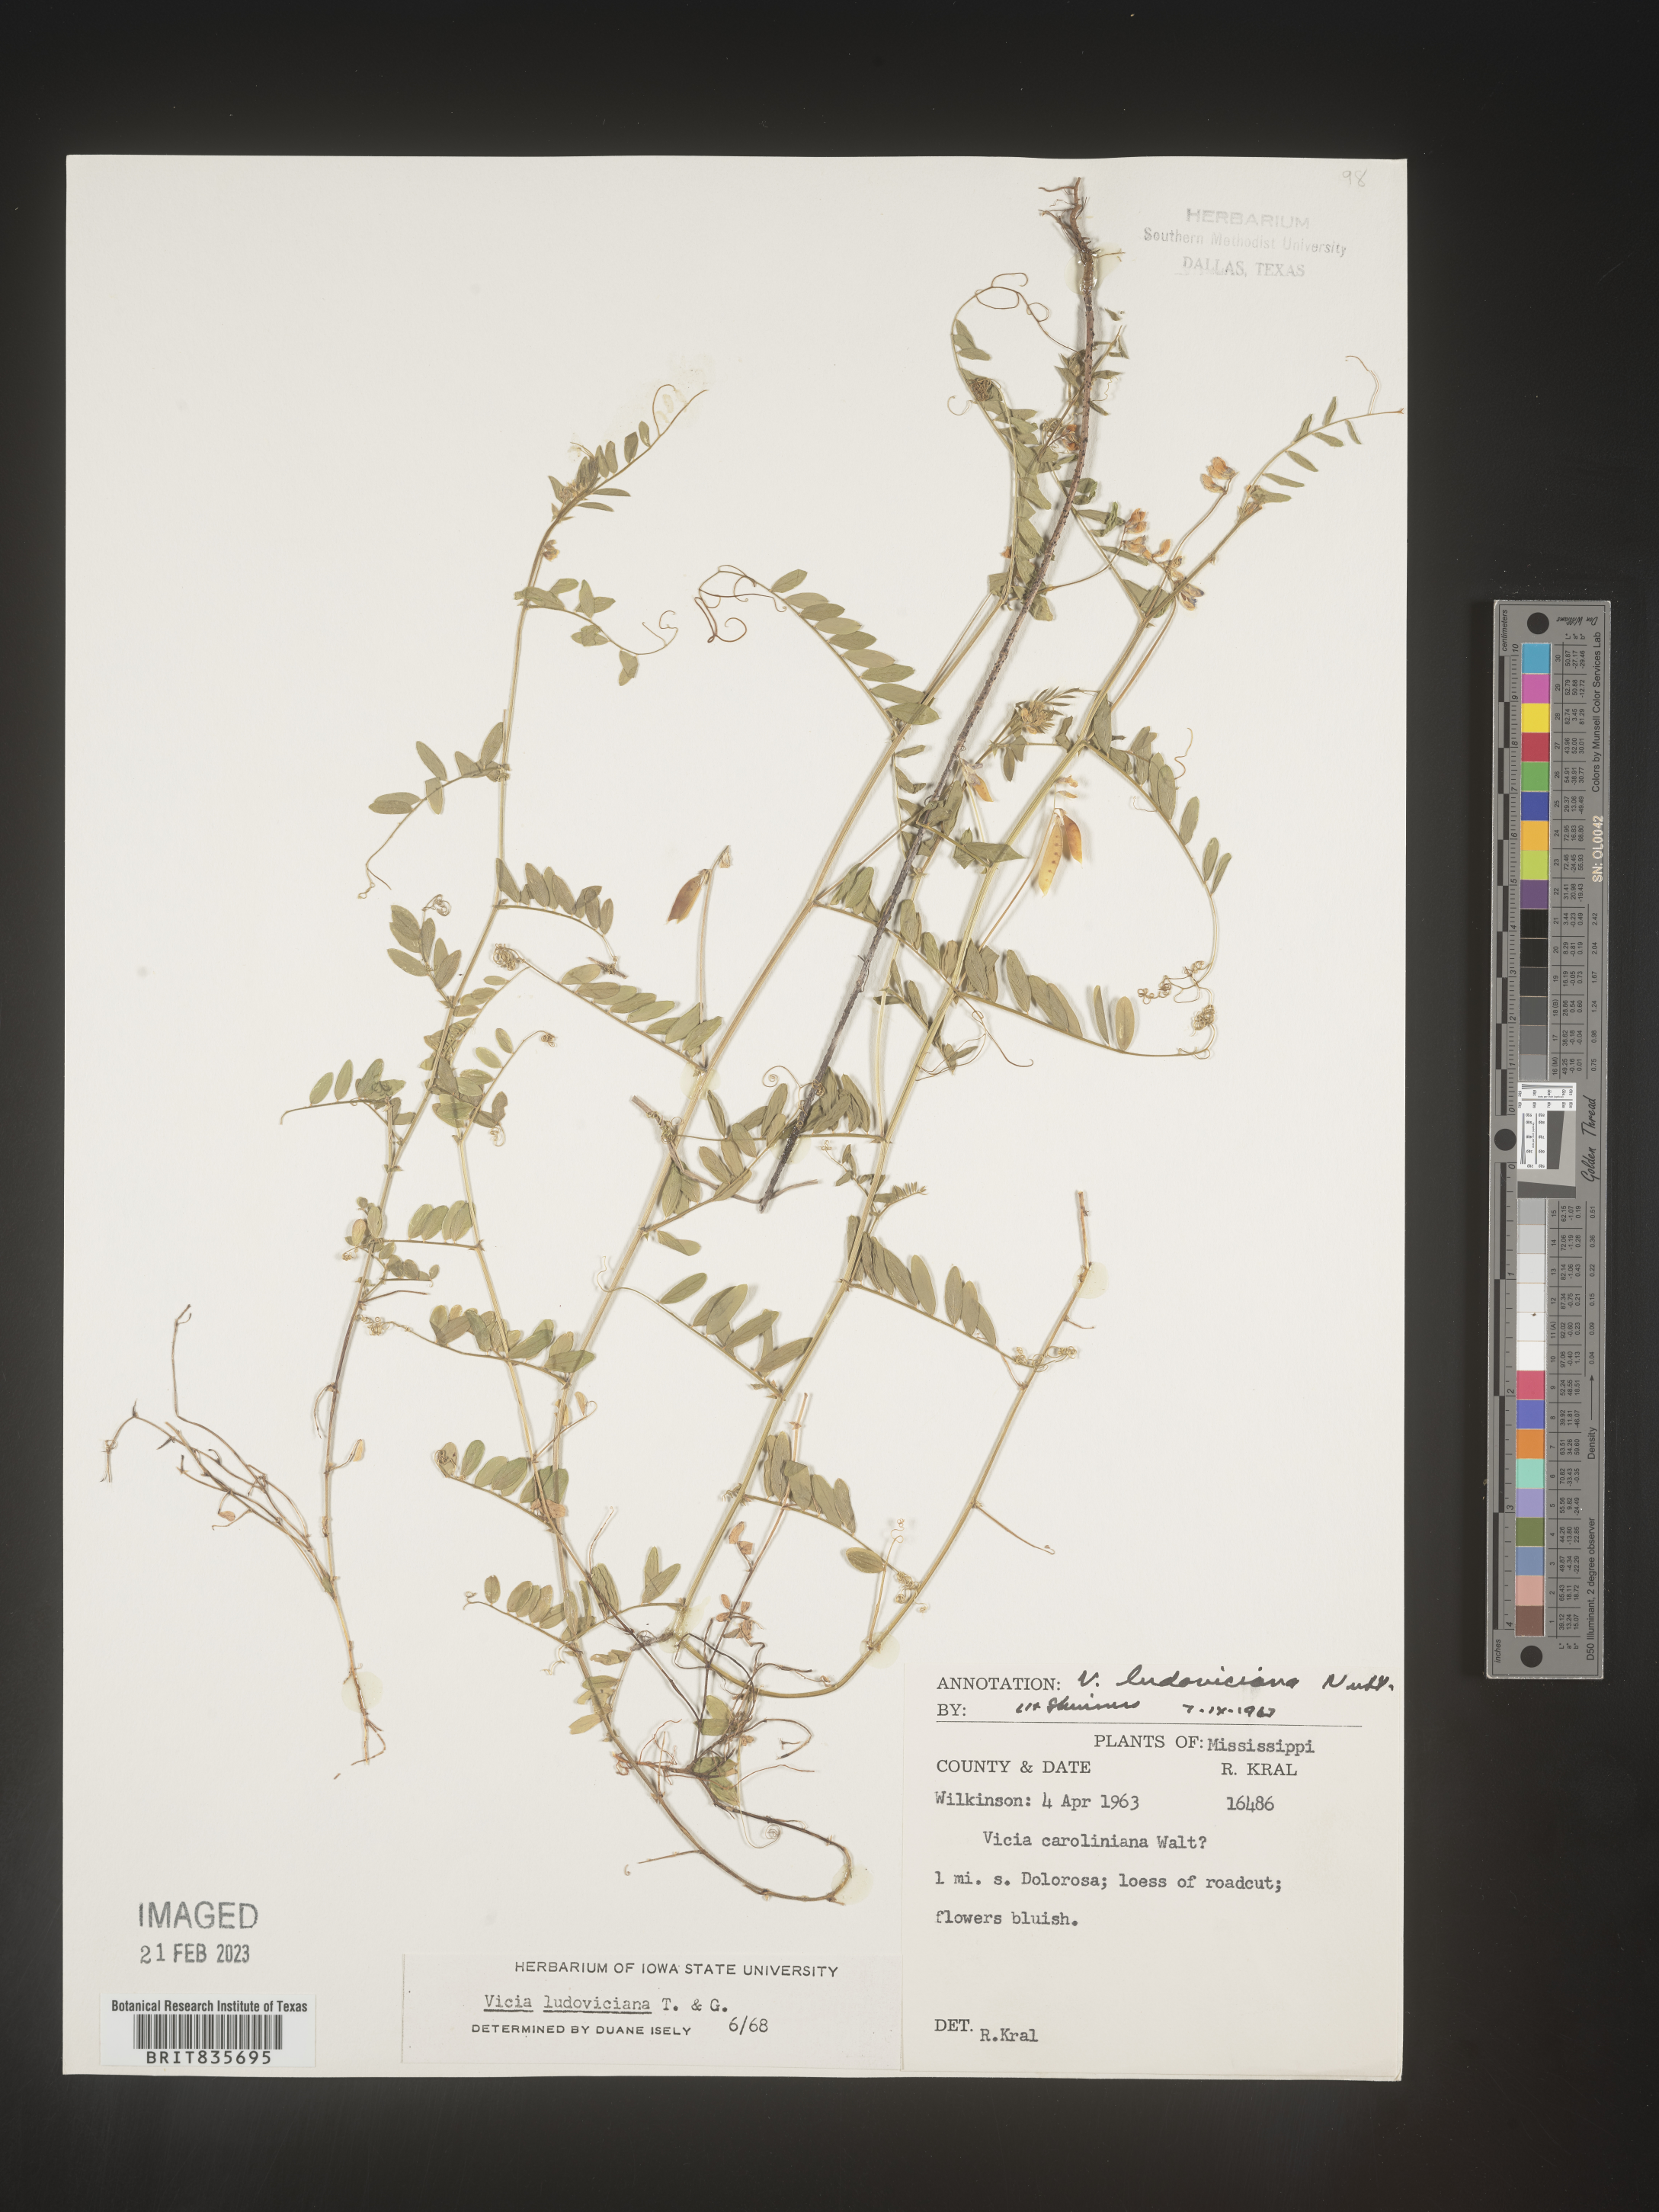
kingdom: Plantae
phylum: Tracheophyta
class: Magnoliopsida
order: Fabales
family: Fabaceae
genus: Vicia
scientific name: Vicia ludoviciana
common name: Louisiana vetch
